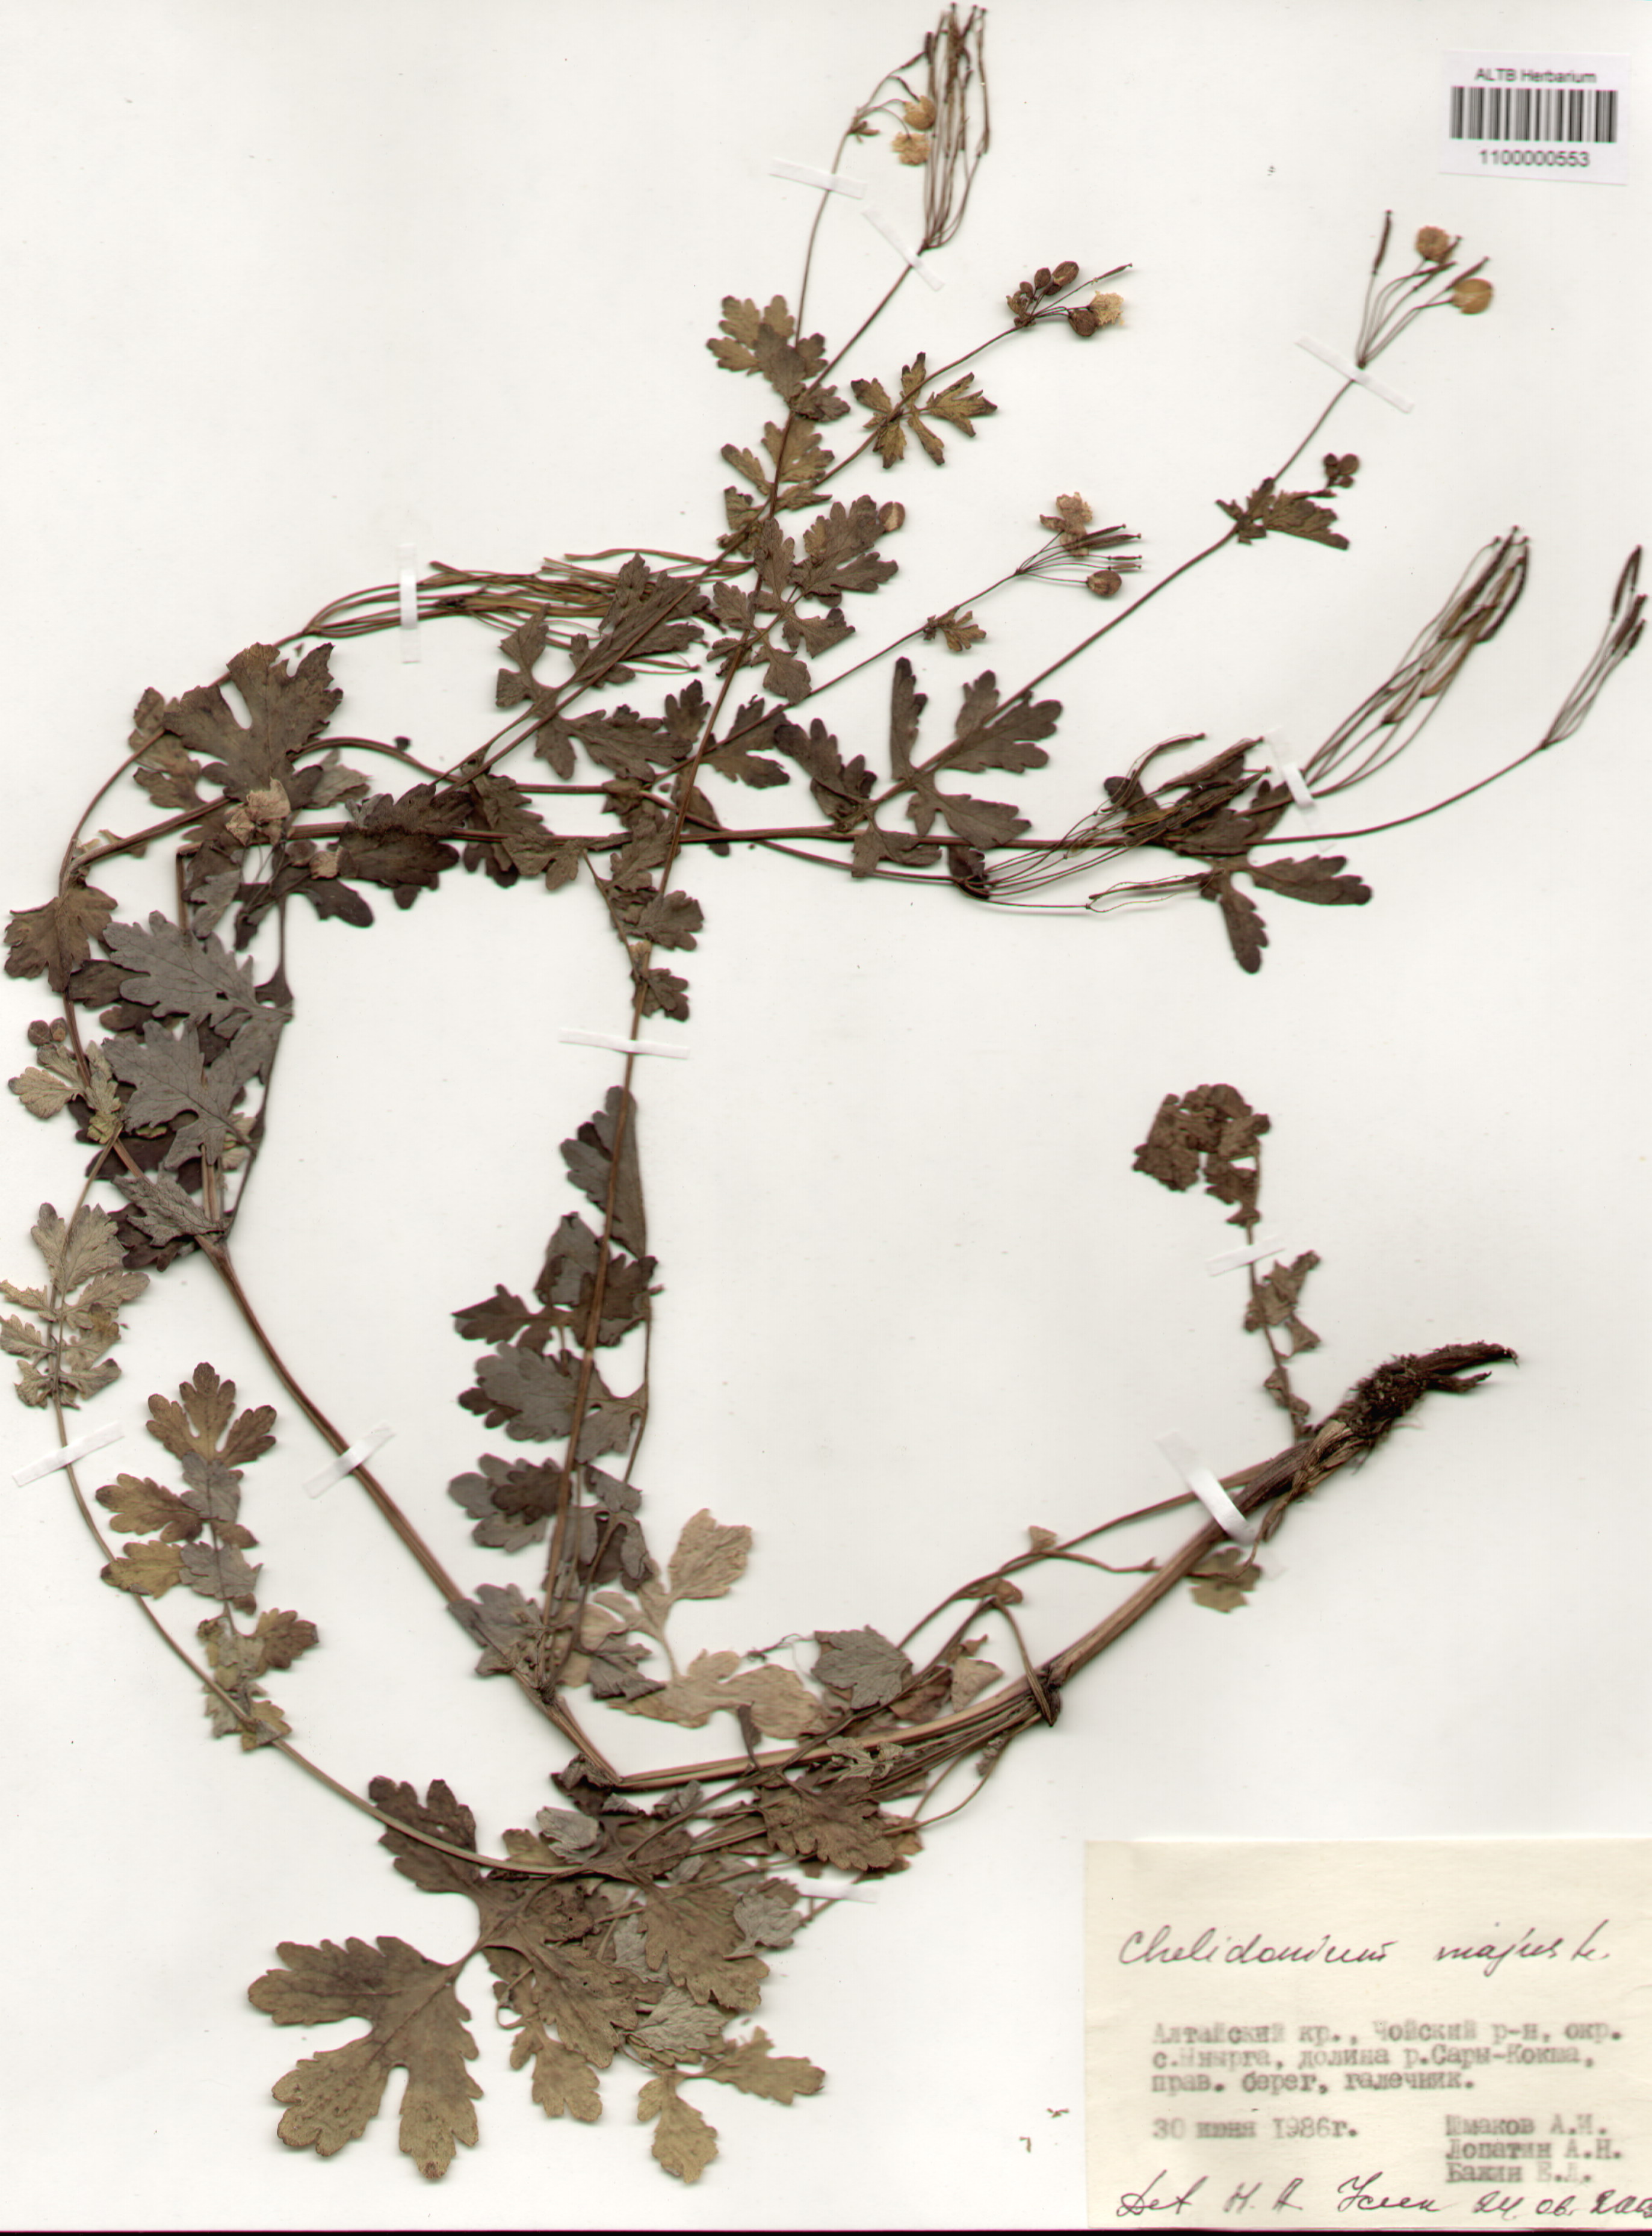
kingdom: Plantae
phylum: Tracheophyta
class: Magnoliopsida
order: Ranunculales
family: Papaveraceae
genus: Chelidonium
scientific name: Chelidonium majus
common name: Greater celandine
